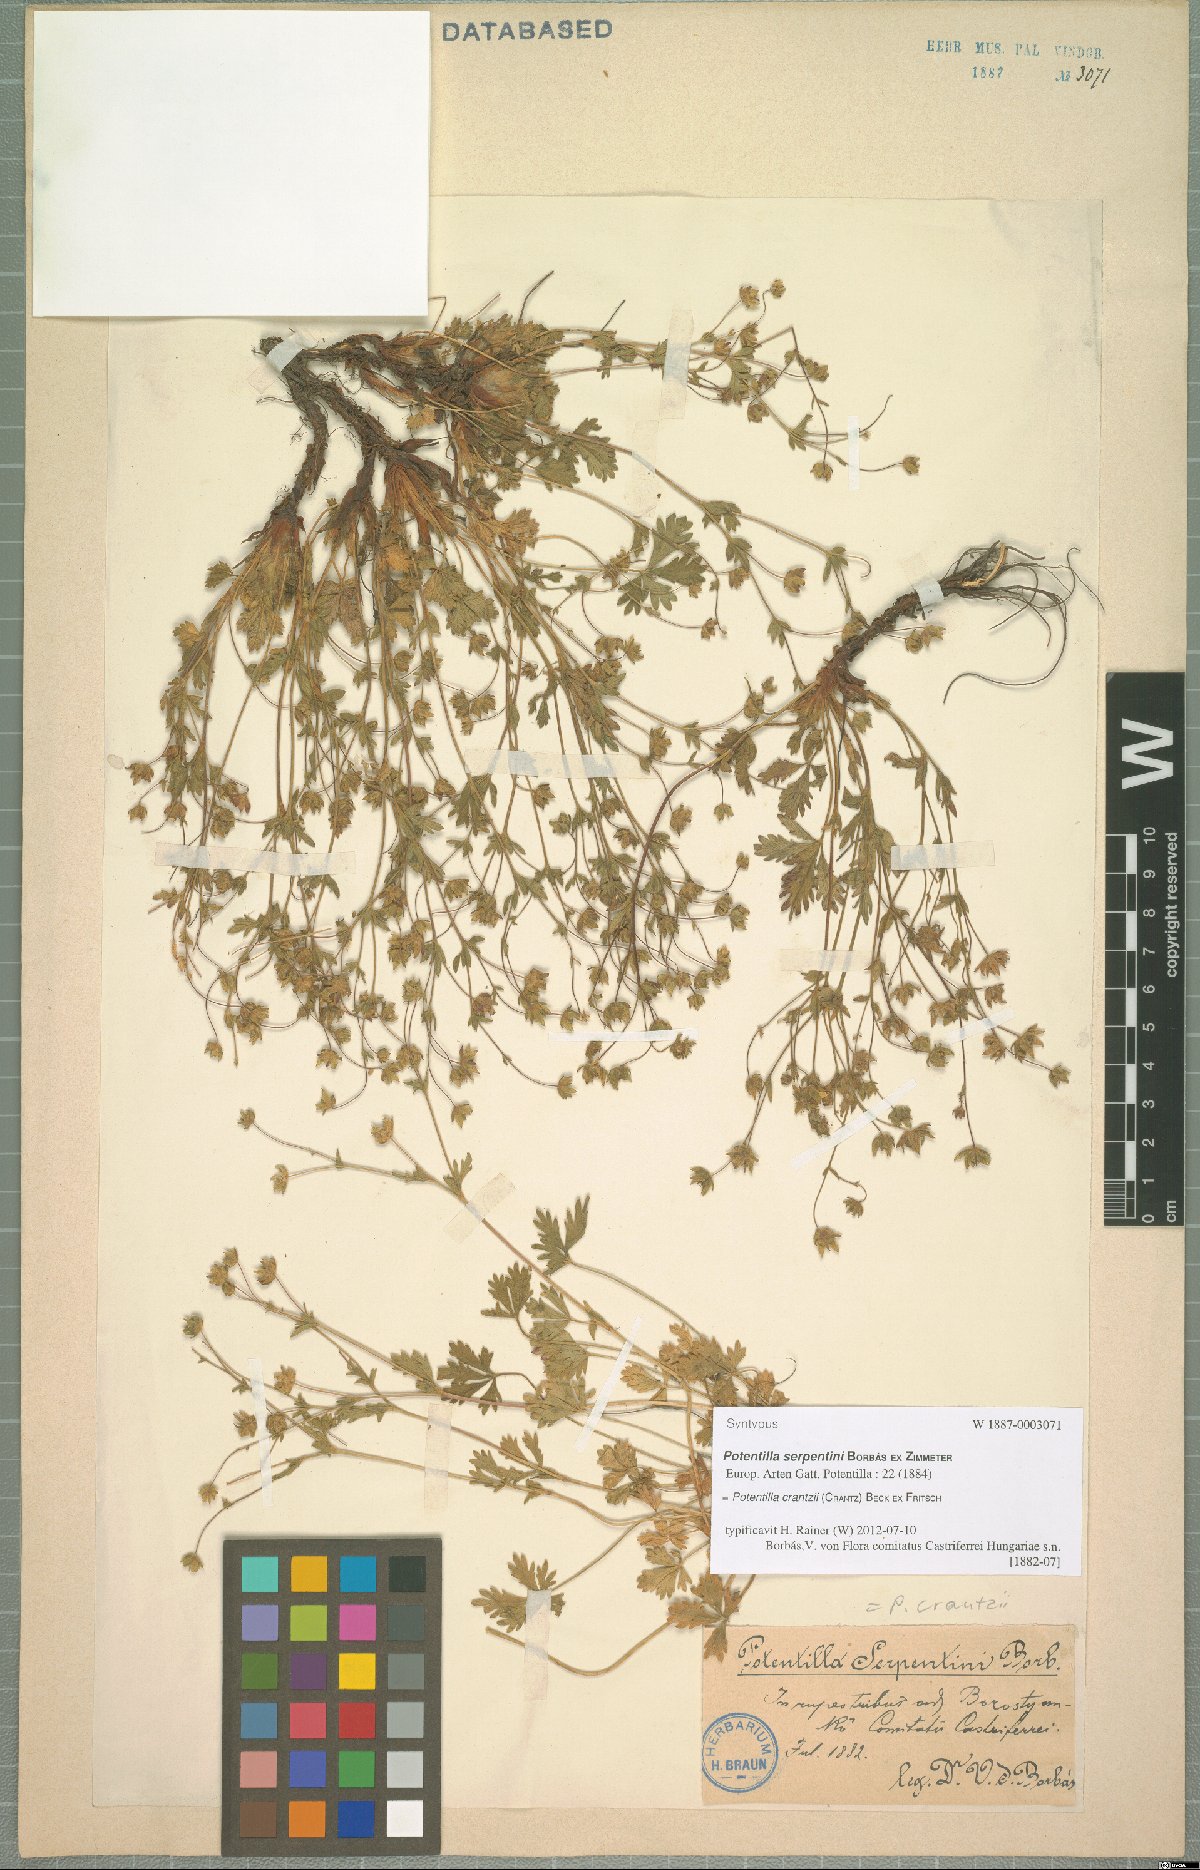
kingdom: Plantae
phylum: Tracheophyta
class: Magnoliopsida
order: Rosales
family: Rosaceae
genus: Potentilla
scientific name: Potentilla crantzii
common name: Alpine cinquefoil
